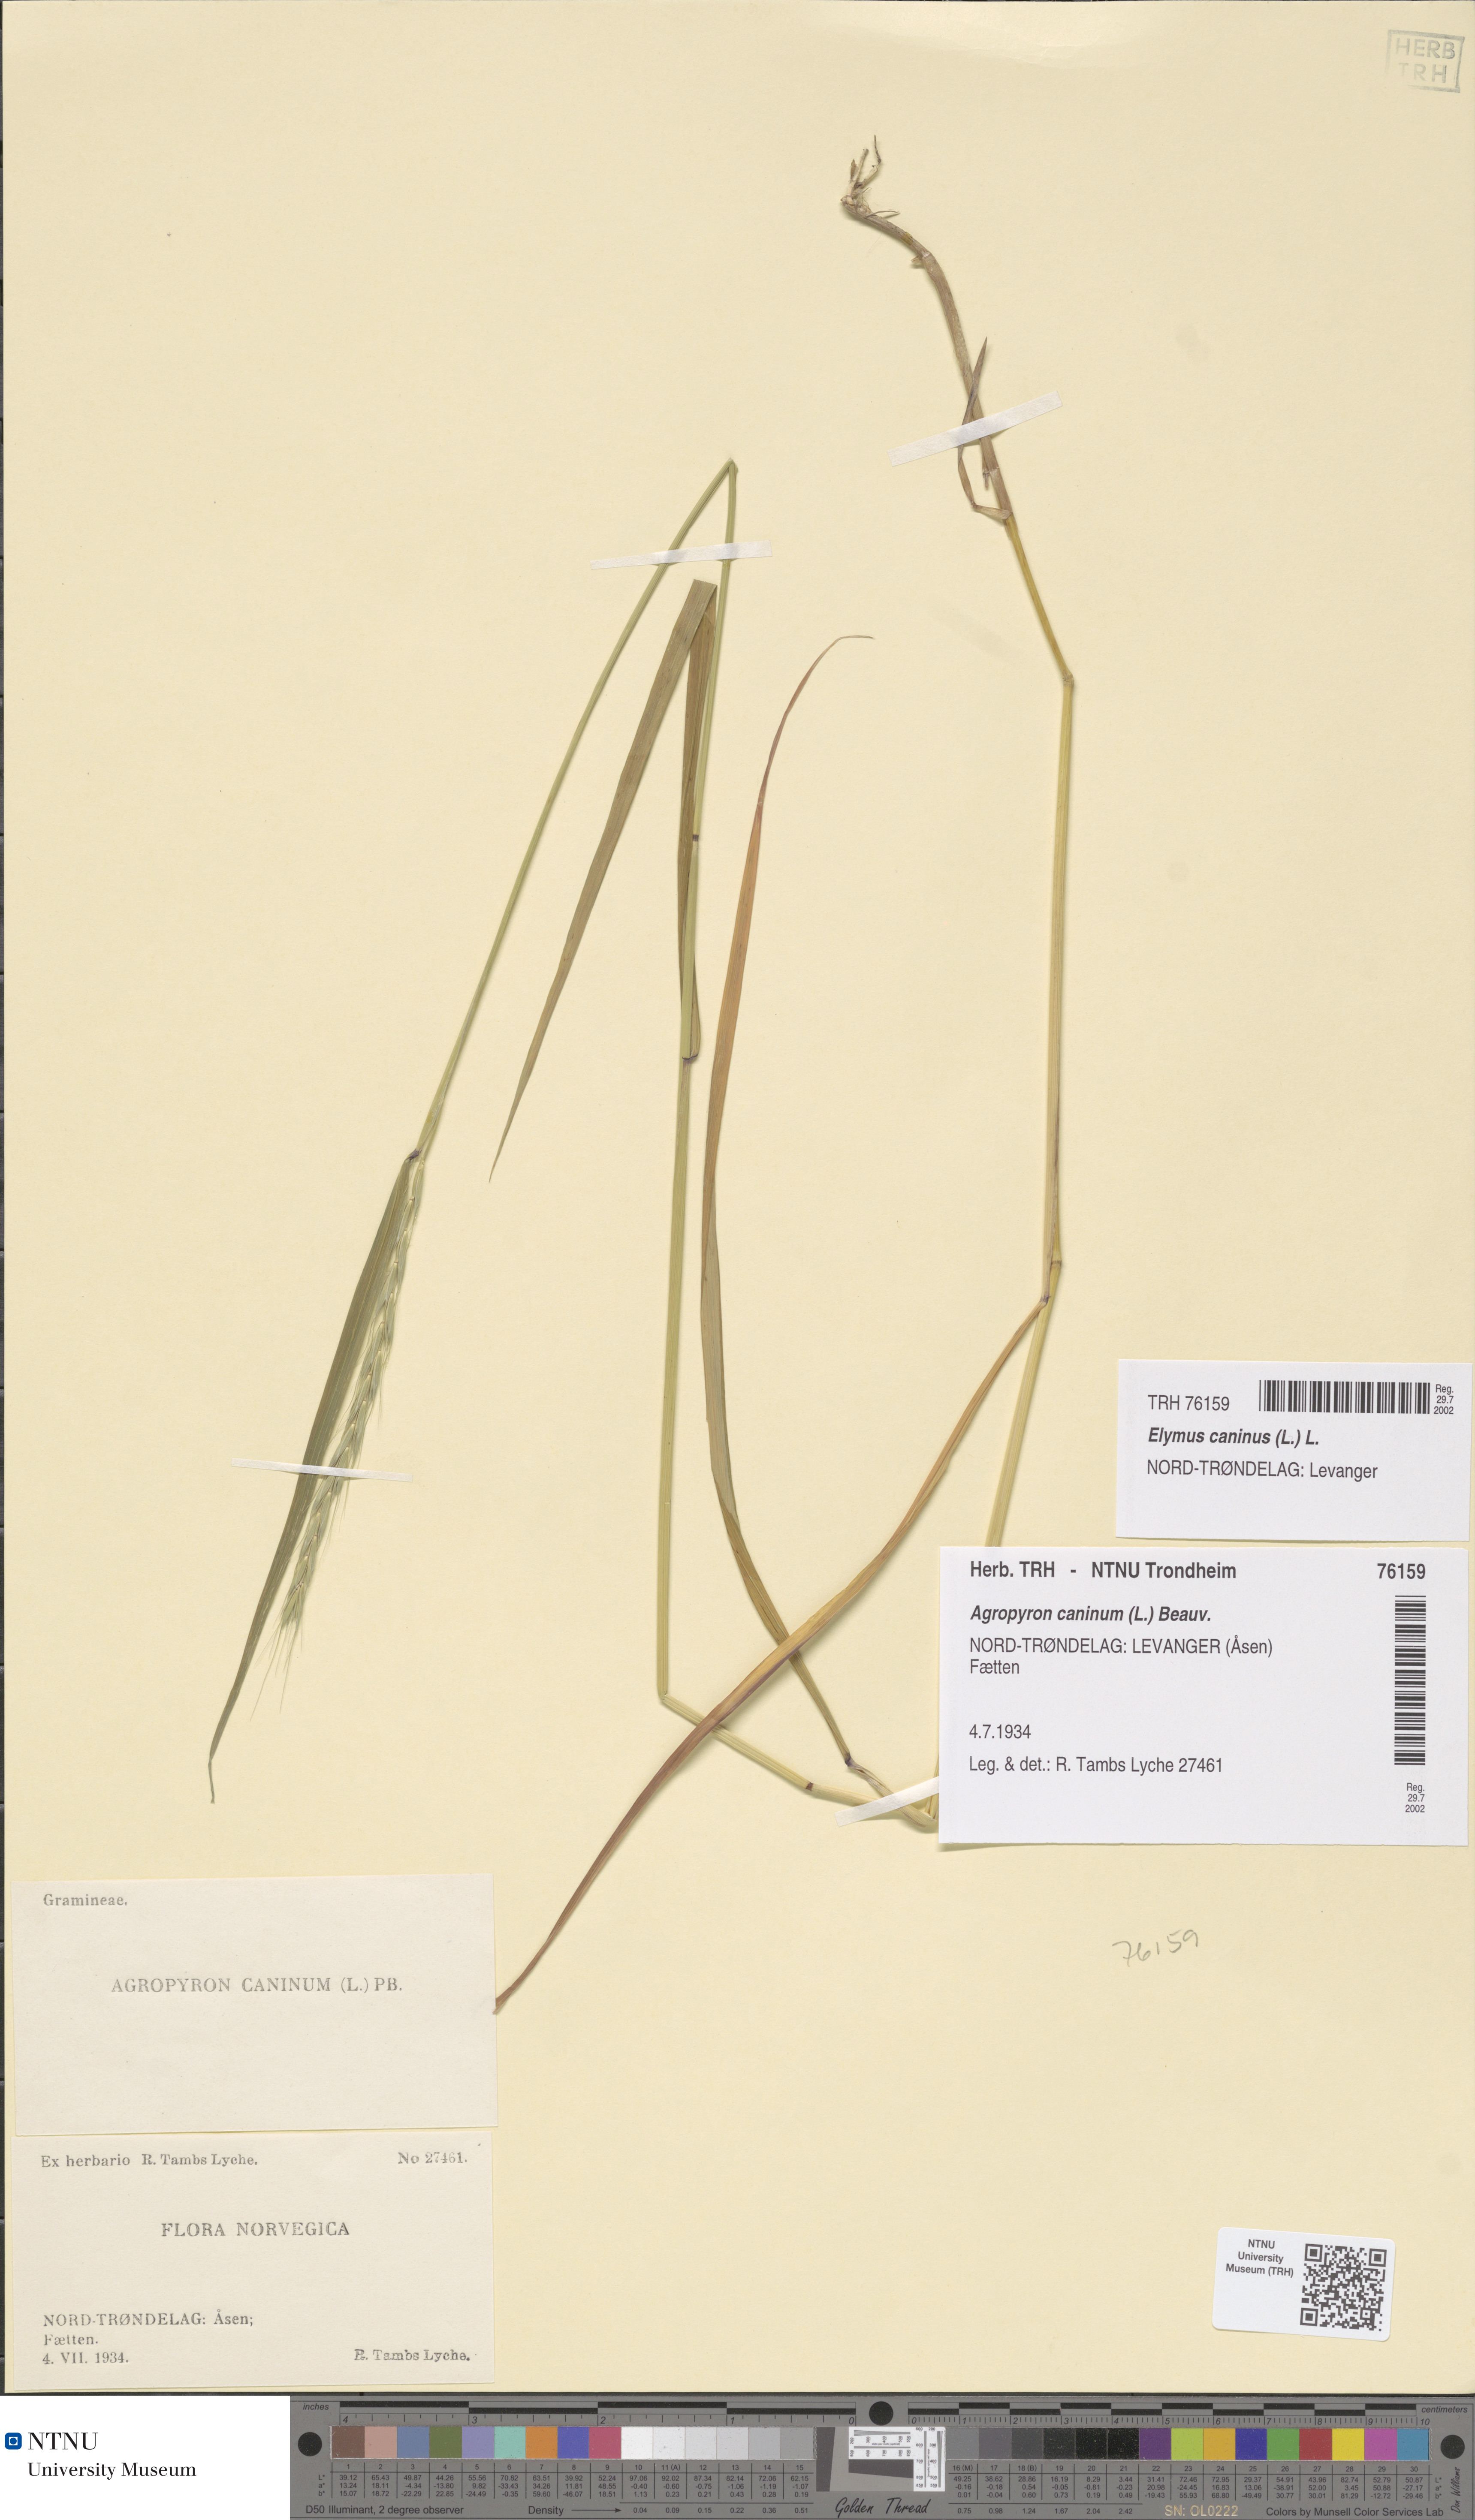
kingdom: Plantae
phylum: Tracheophyta
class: Liliopsida
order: Poales
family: Poaceae
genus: Elymus
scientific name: Elymus caninus
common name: Bearded couch
